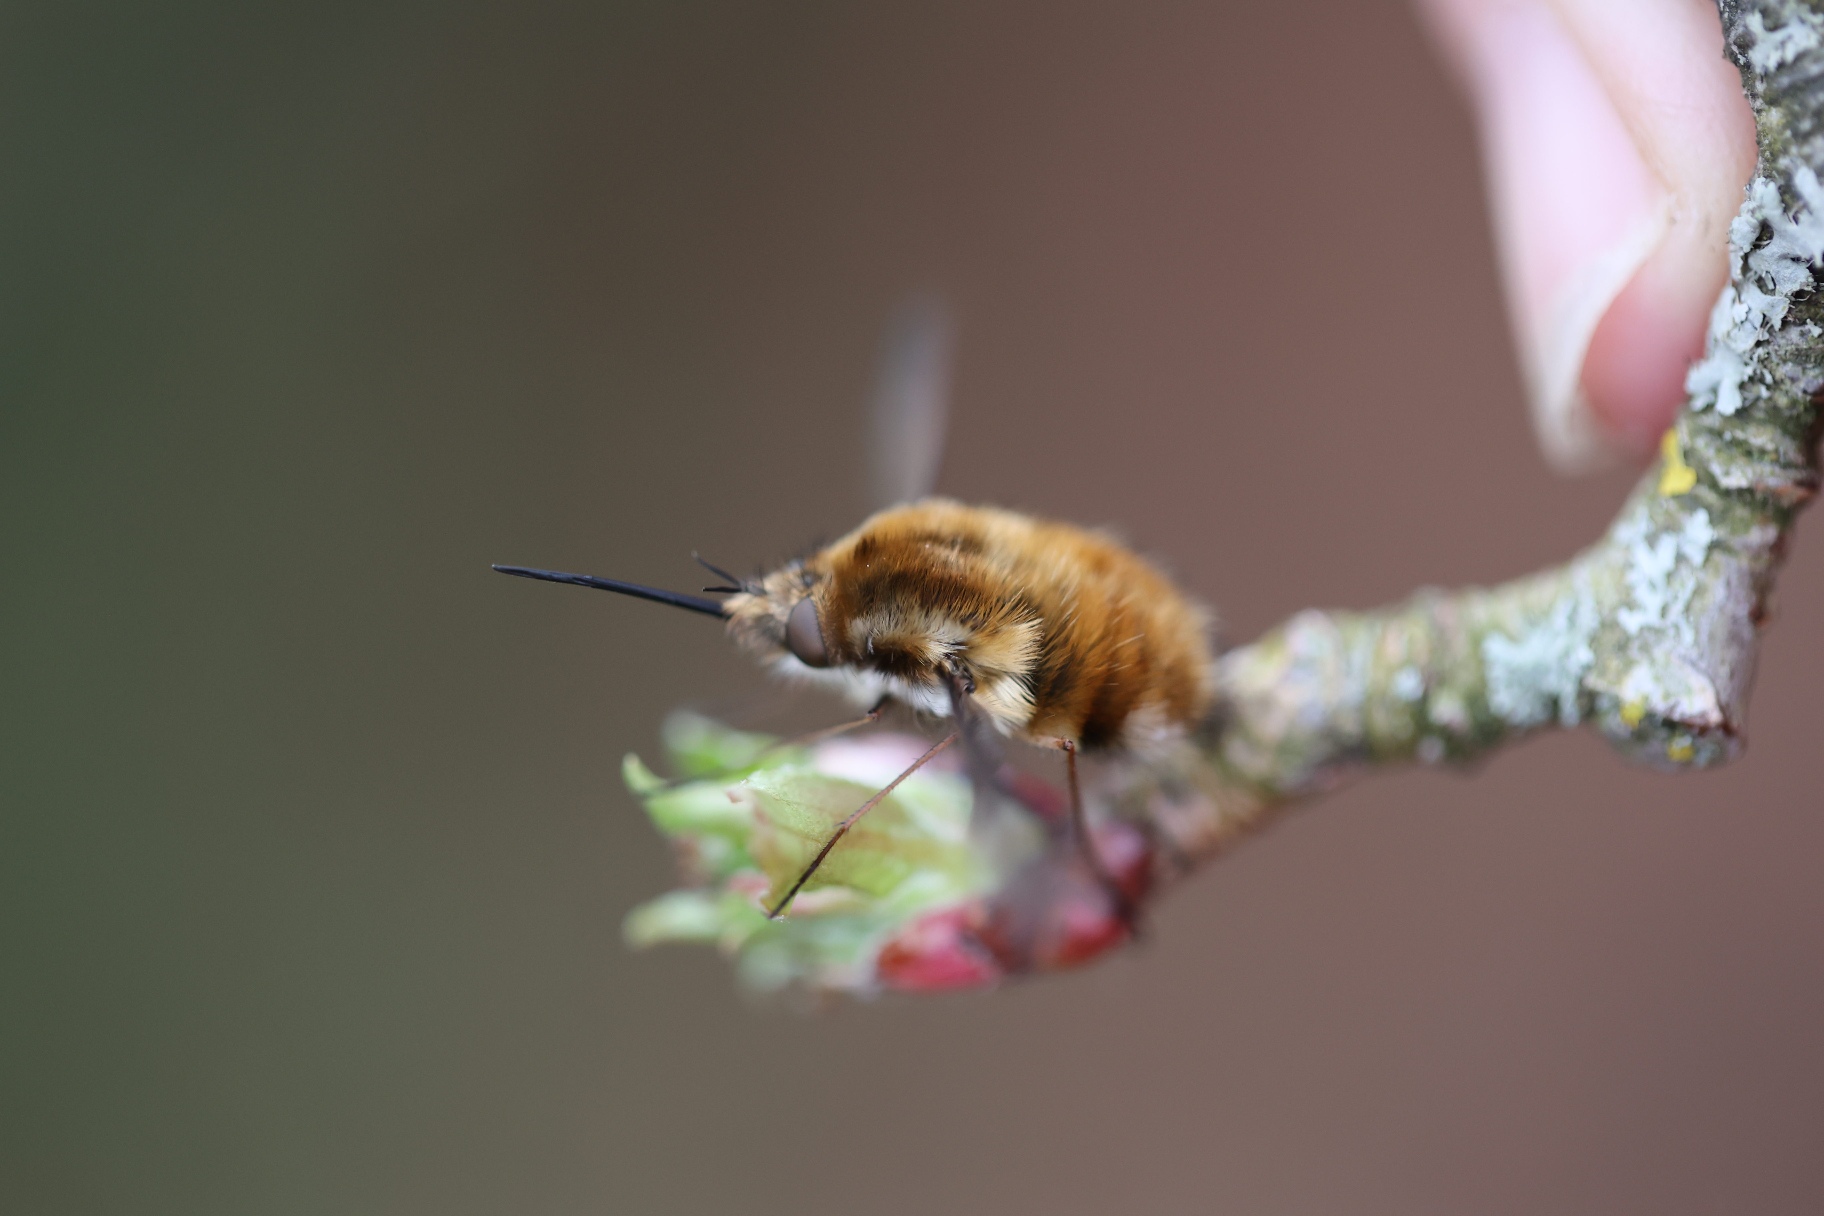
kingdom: Animalia
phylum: Arthropoda
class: Insecta
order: Diptera
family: Bombyliidae
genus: Bombylius
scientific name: Bombylius major
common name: Stor humleflue
